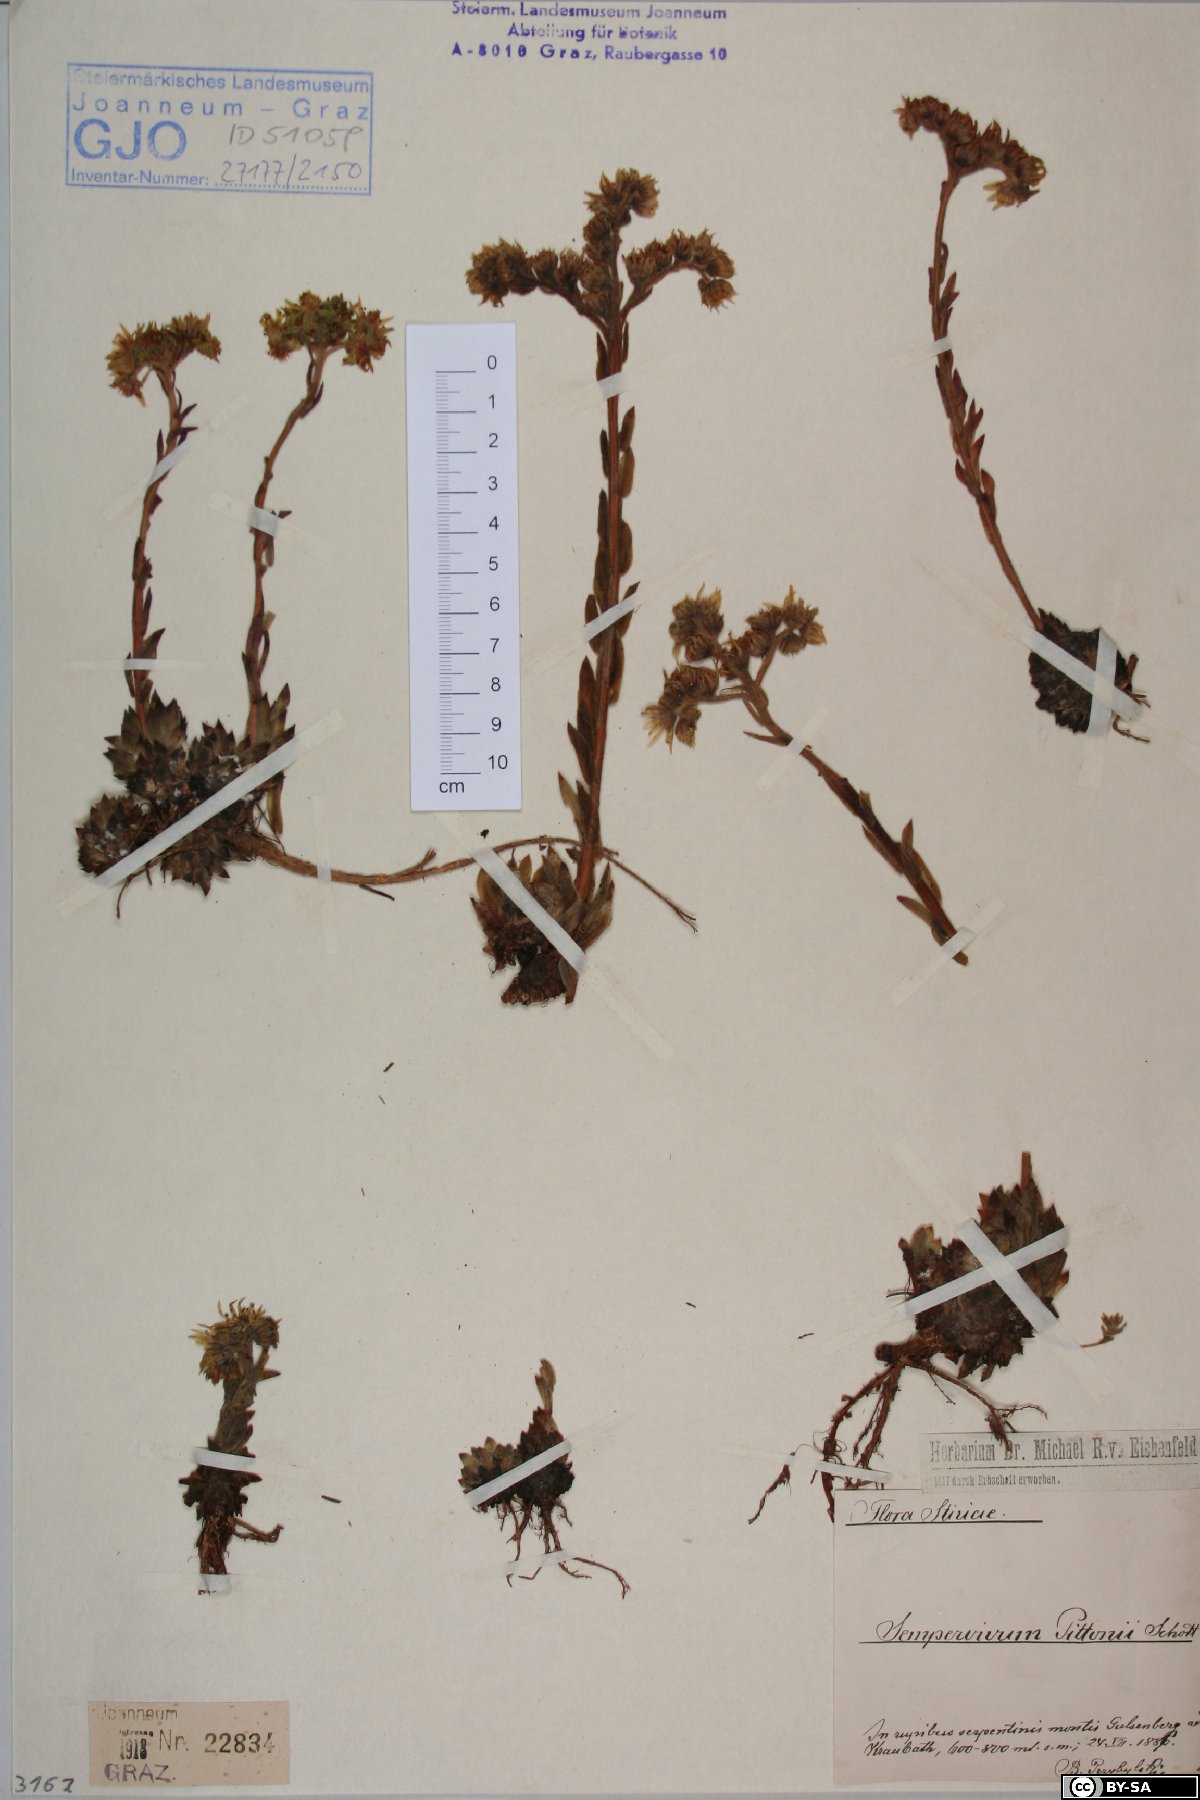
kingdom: Plantae
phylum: Tracheophyta
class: Magnoliopsida
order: Saxifragales
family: Crassulaceae
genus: Sempervivum
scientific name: Sempervivum pittonii
